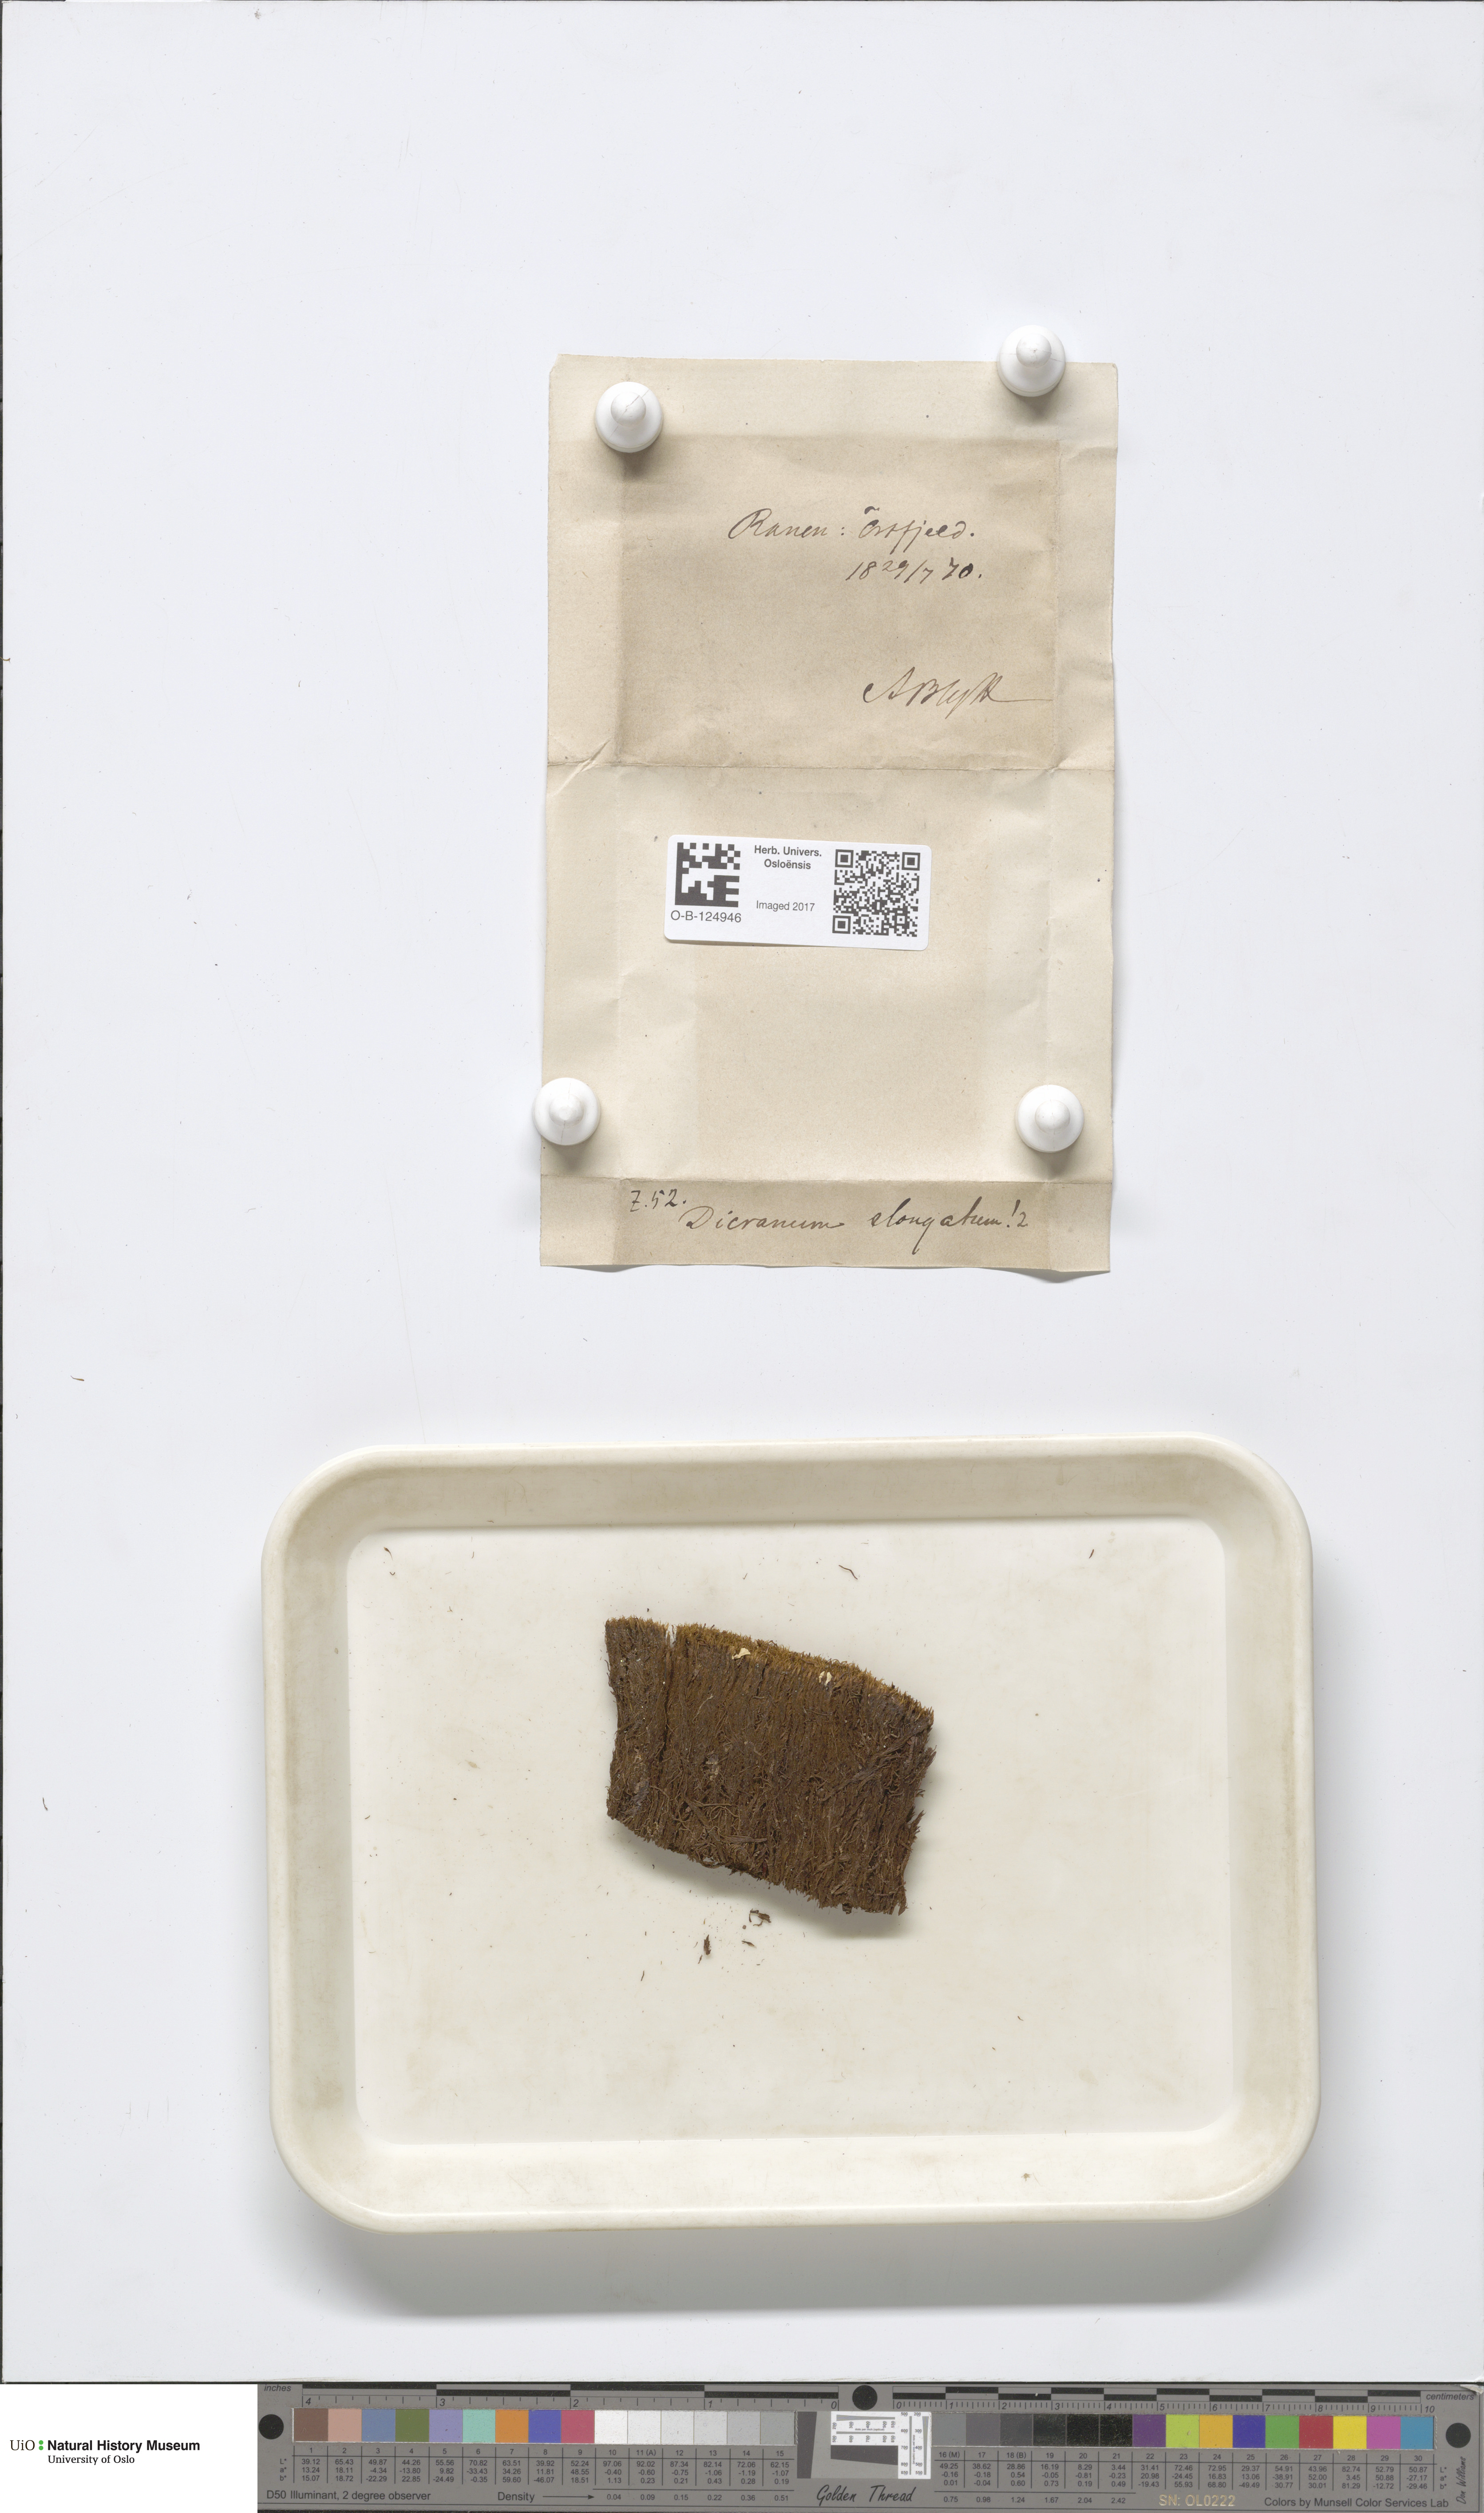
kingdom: Plantae
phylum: Bryophyta
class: Bryopsida
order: Dicranales
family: Dicranaceae
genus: Dicranum
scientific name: Dicranum elongatum
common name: Long-forked broom moss
